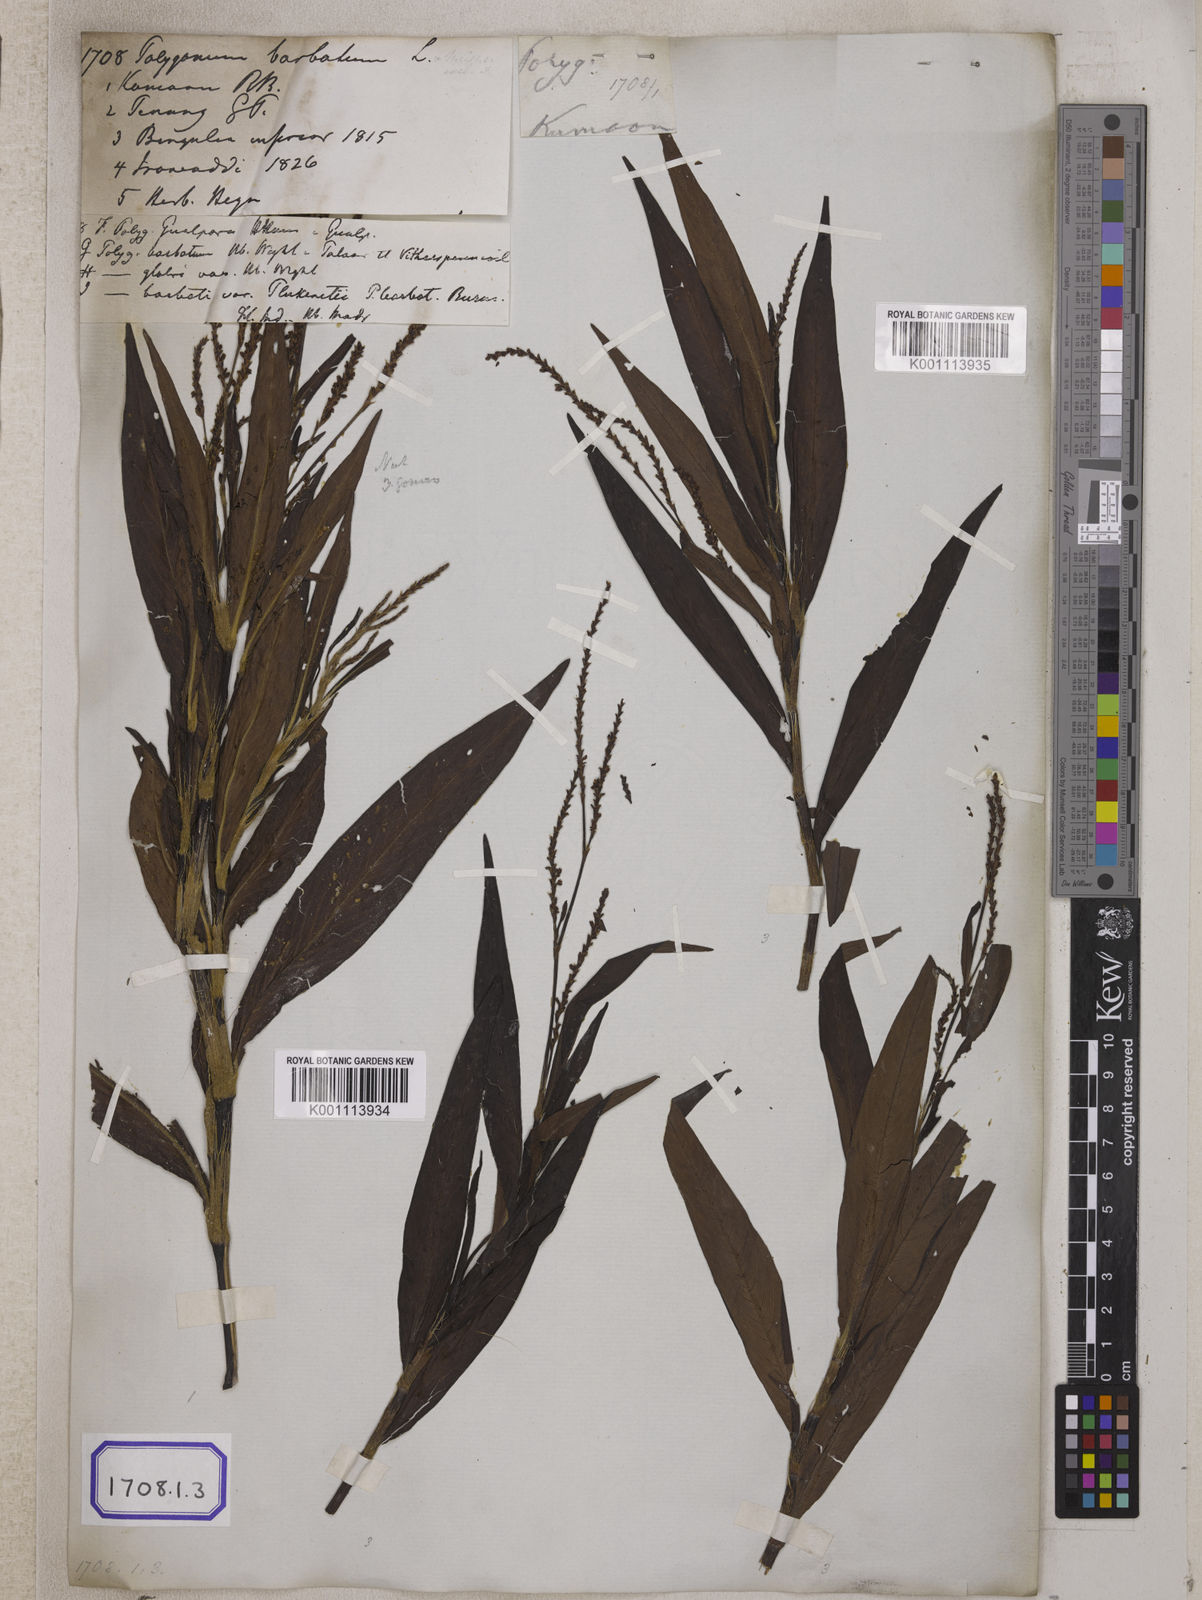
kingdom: Plantae
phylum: Tracheophyta
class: Magnoliopsida
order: Caryophyllales
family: Polygonaceae
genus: Persicaria
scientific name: Persicaria barbata
